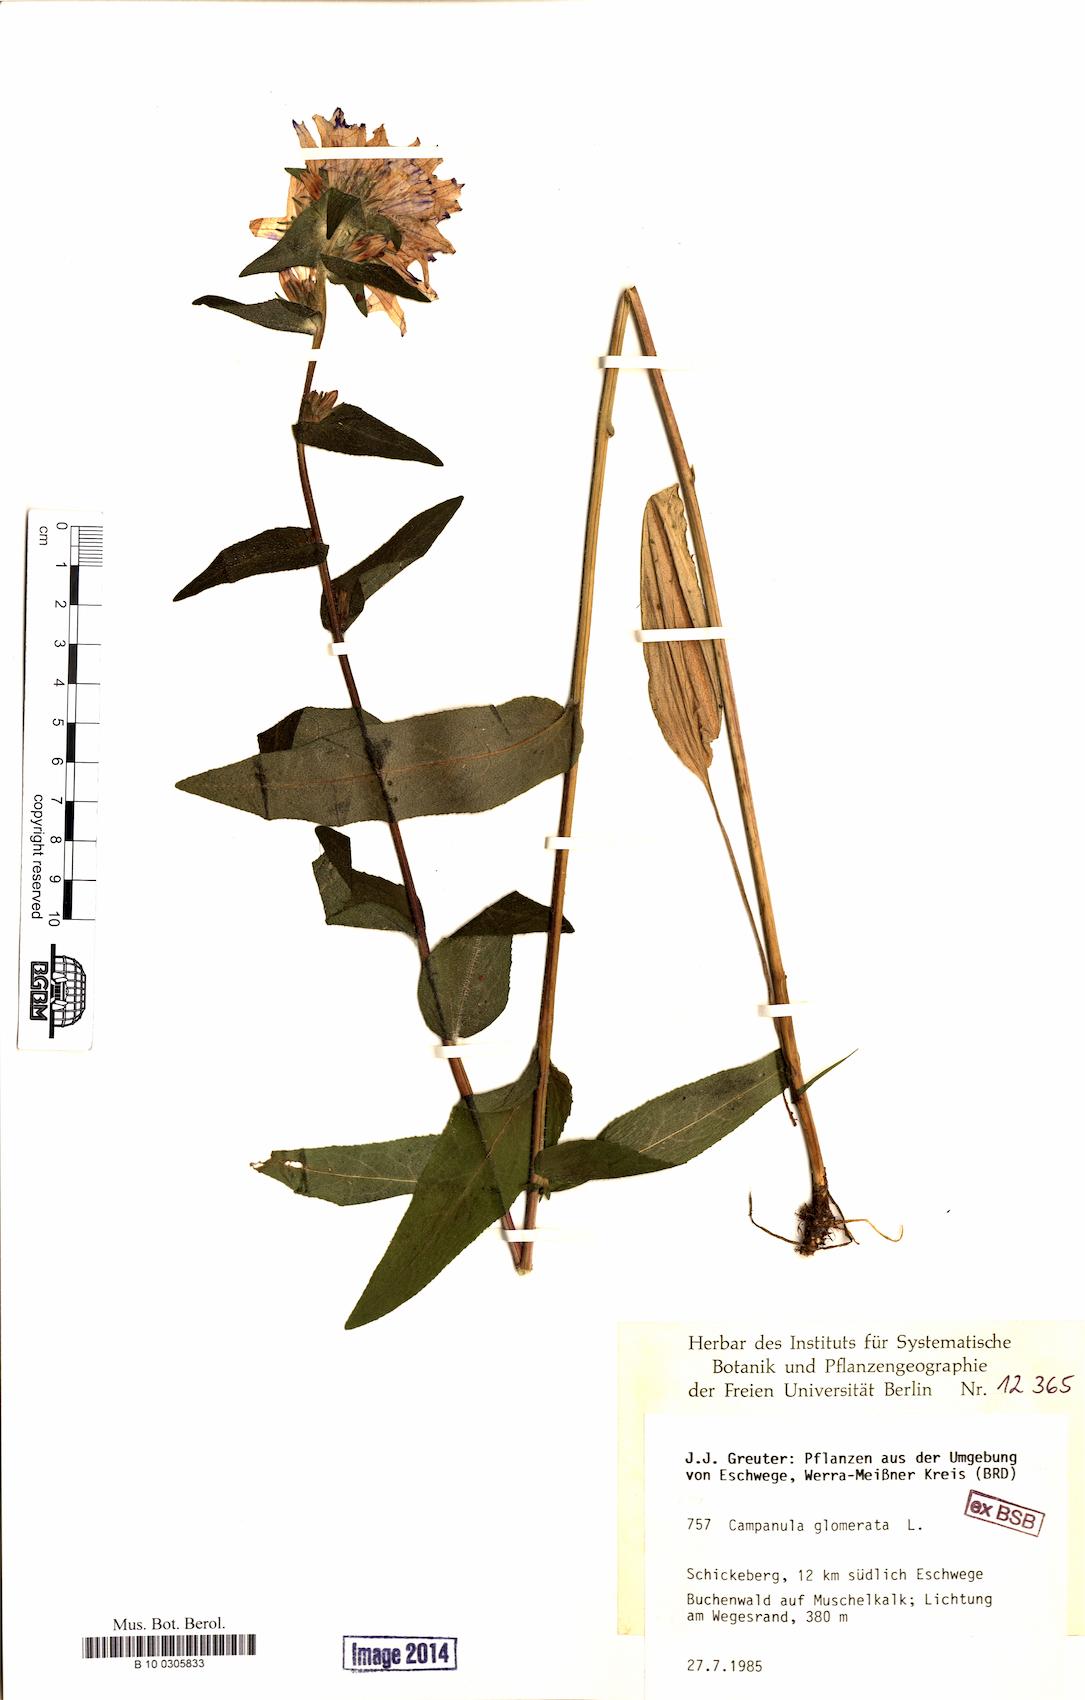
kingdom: Plantae
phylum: Tracheophyta
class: Magnoliopsida
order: Asterales
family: Campanulaceae
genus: Campanula
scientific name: Campanula glomerata
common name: Clustered bellflower
